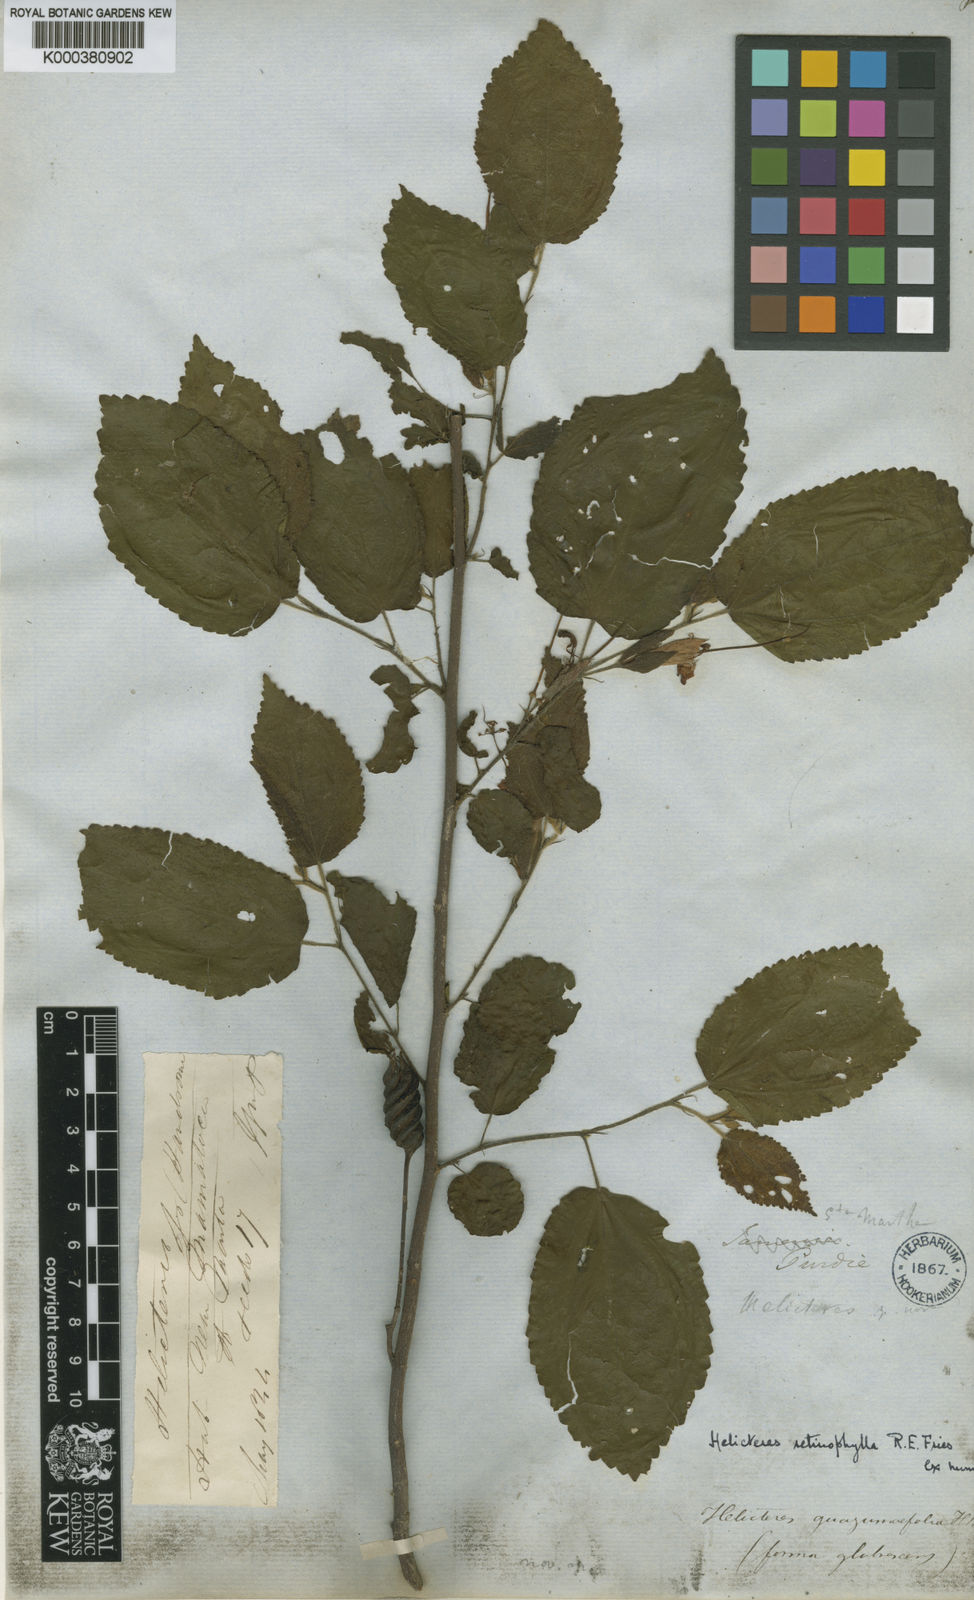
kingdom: Plantae
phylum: Tracheophyta
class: Magnoliopsida
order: Malvales
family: Malvaceae
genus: Helicteres
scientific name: Helicteres guazumifolia
